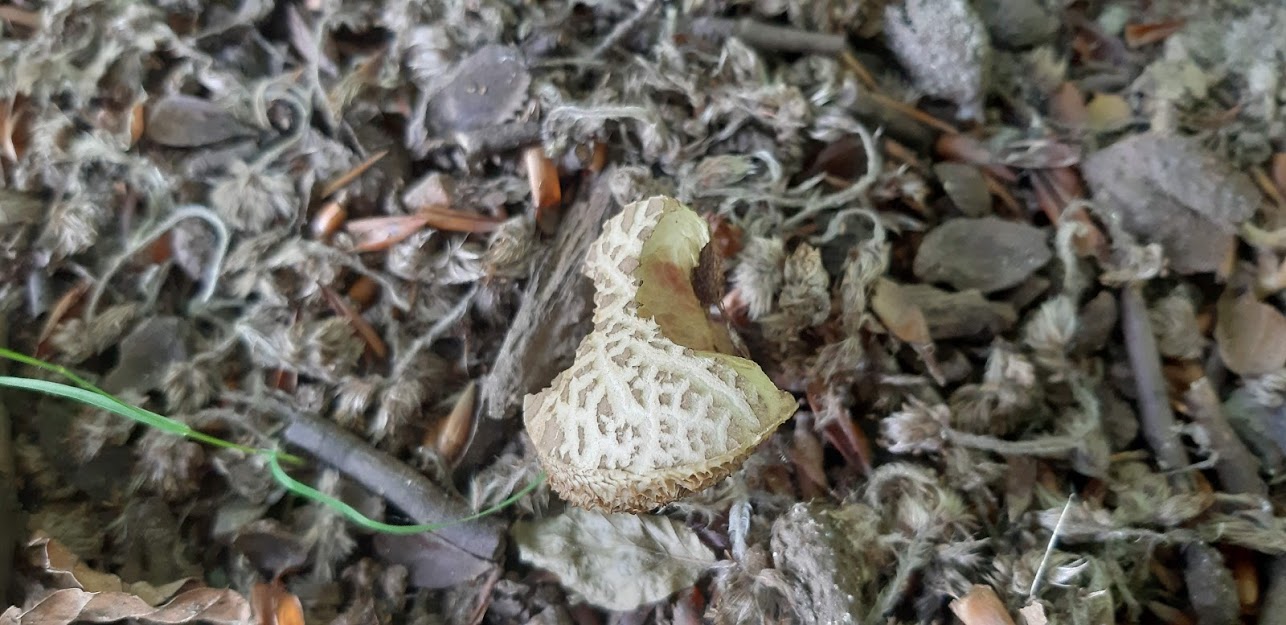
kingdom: Fungi
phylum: Basidiomycota
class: Agaricomycetes
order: Boletales
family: Boletaceae
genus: Xerocomellus
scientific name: Xerocomellus porosporus
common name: hvidsprukken rørhat
